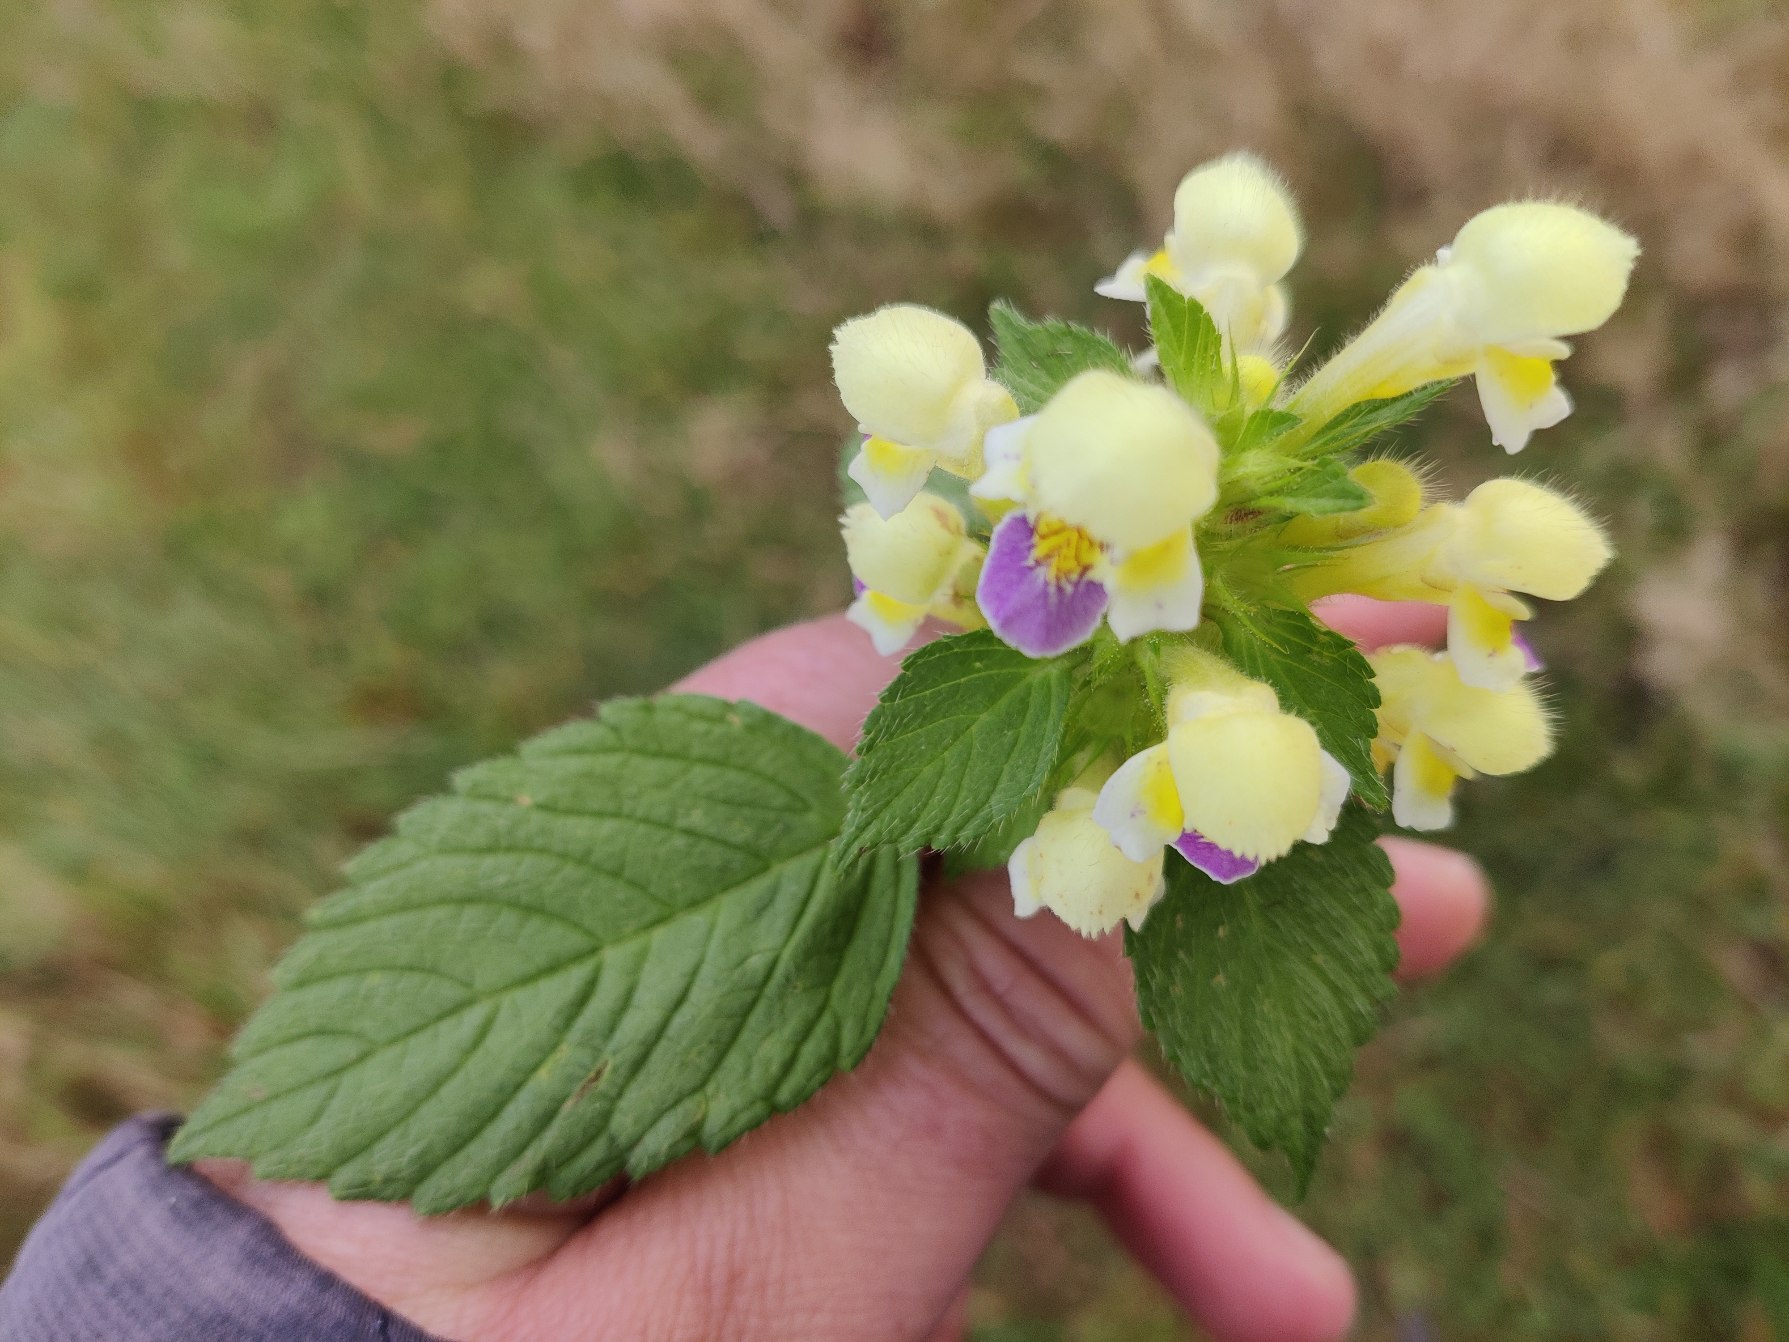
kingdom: Plantae
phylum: Tracheophyta
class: Magnoliopsida
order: Lamiales
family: Lamiaceae
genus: Galeopsis
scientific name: Galeopsis speciosa
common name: Hamp-hanekro
